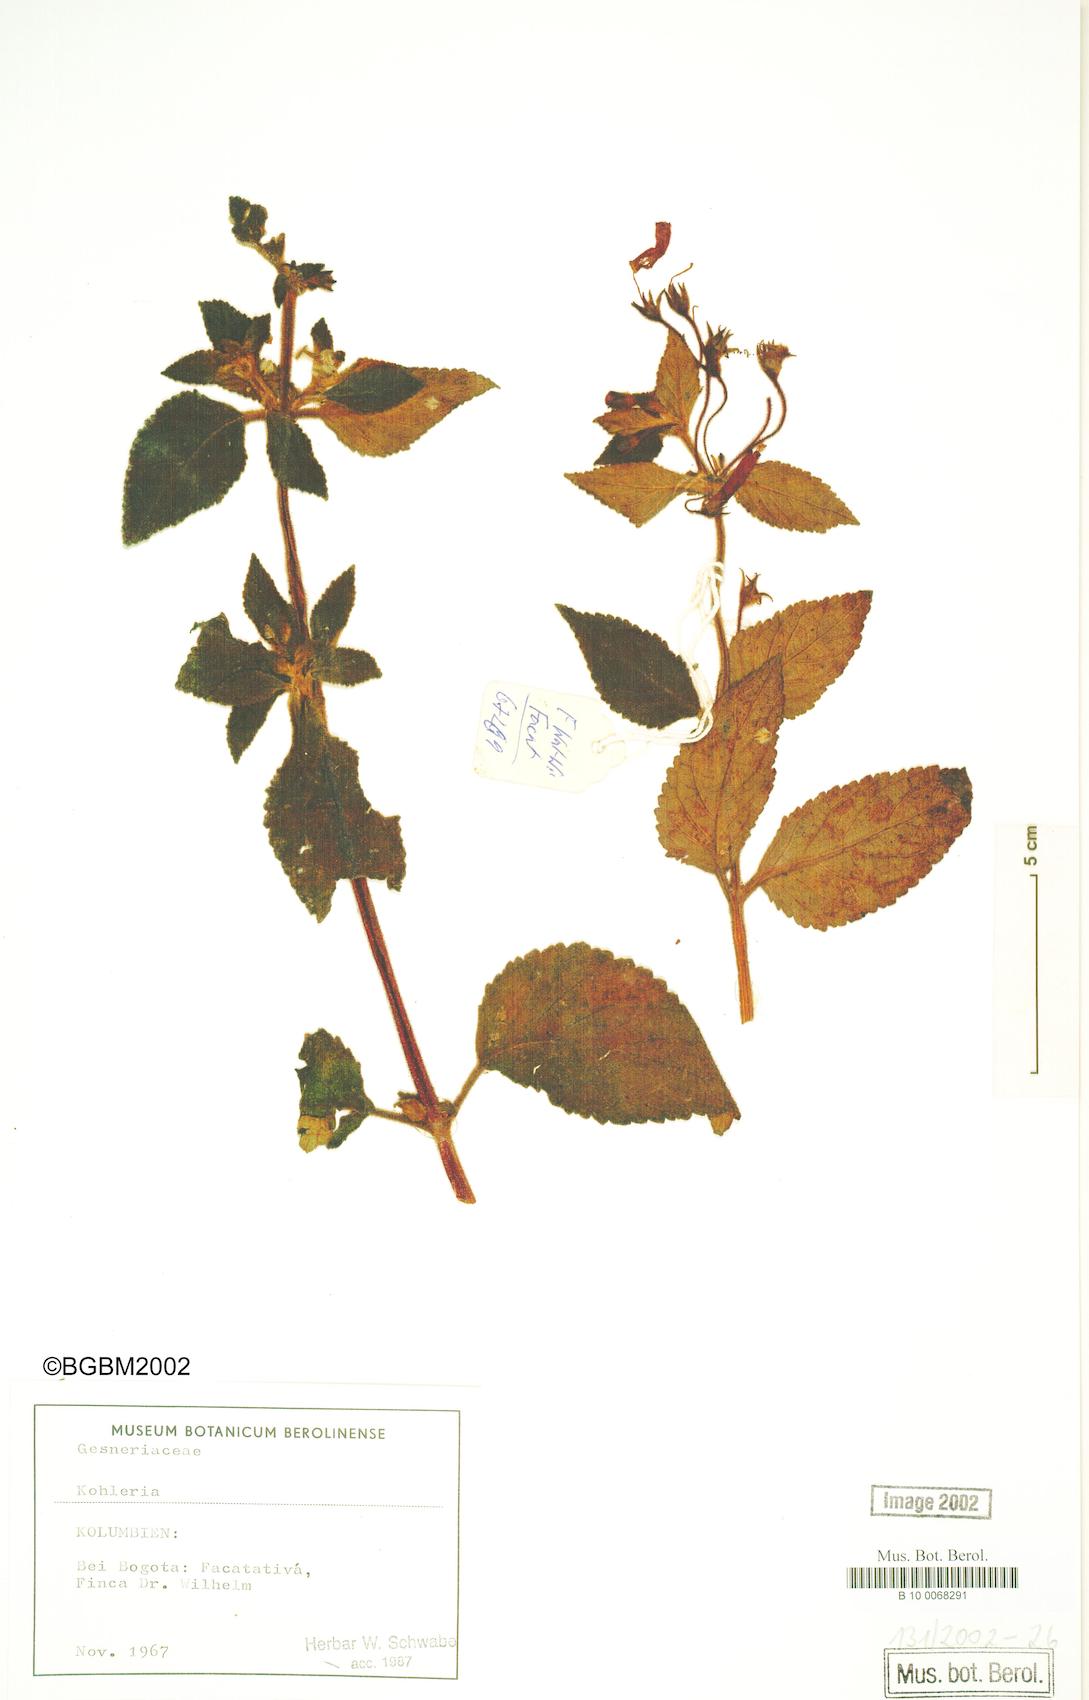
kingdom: Plantae
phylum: Tracheophyta
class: Magnoliopsida
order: Lamiales
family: Gesneriaceae
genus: Kohleria
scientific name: Kohleria
